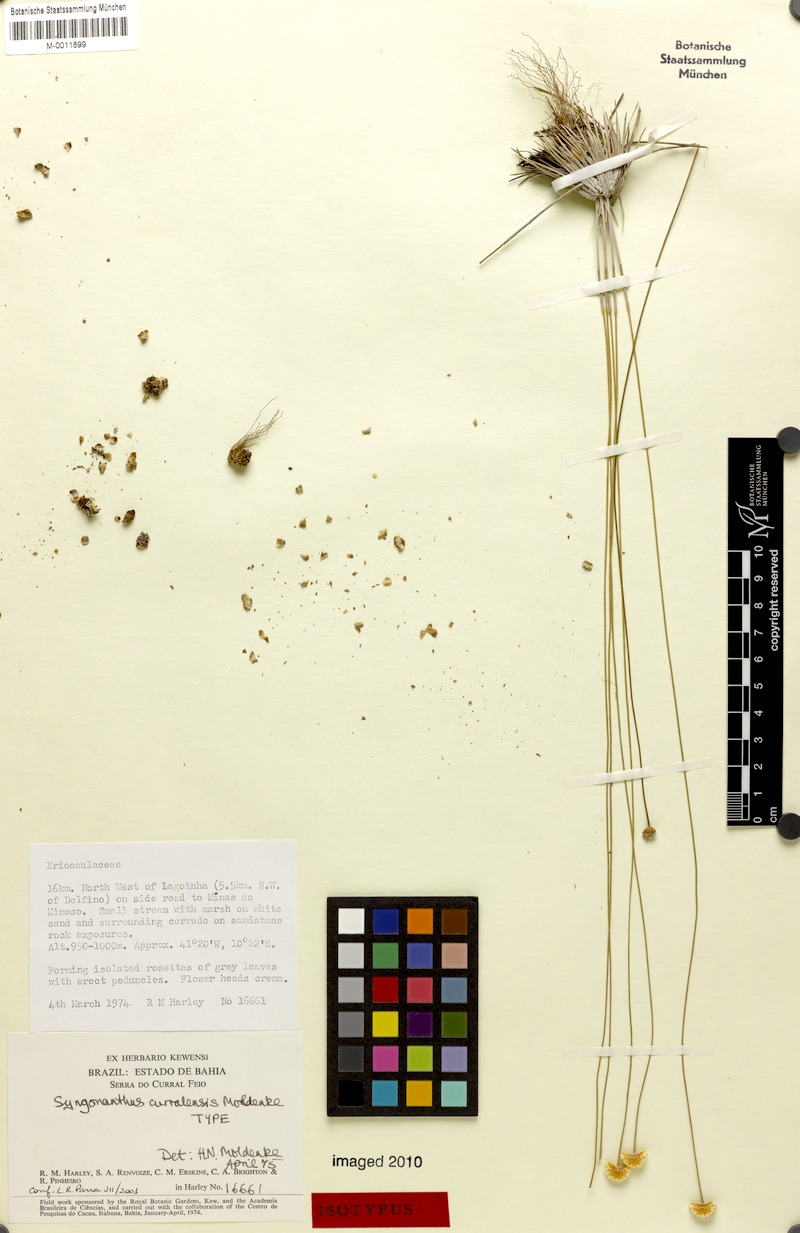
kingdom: Plantae
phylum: Tracheophyta
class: Liliopsida
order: Poales
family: Eriocaulaceae
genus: Comanthera
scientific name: Comanthera curralensis
